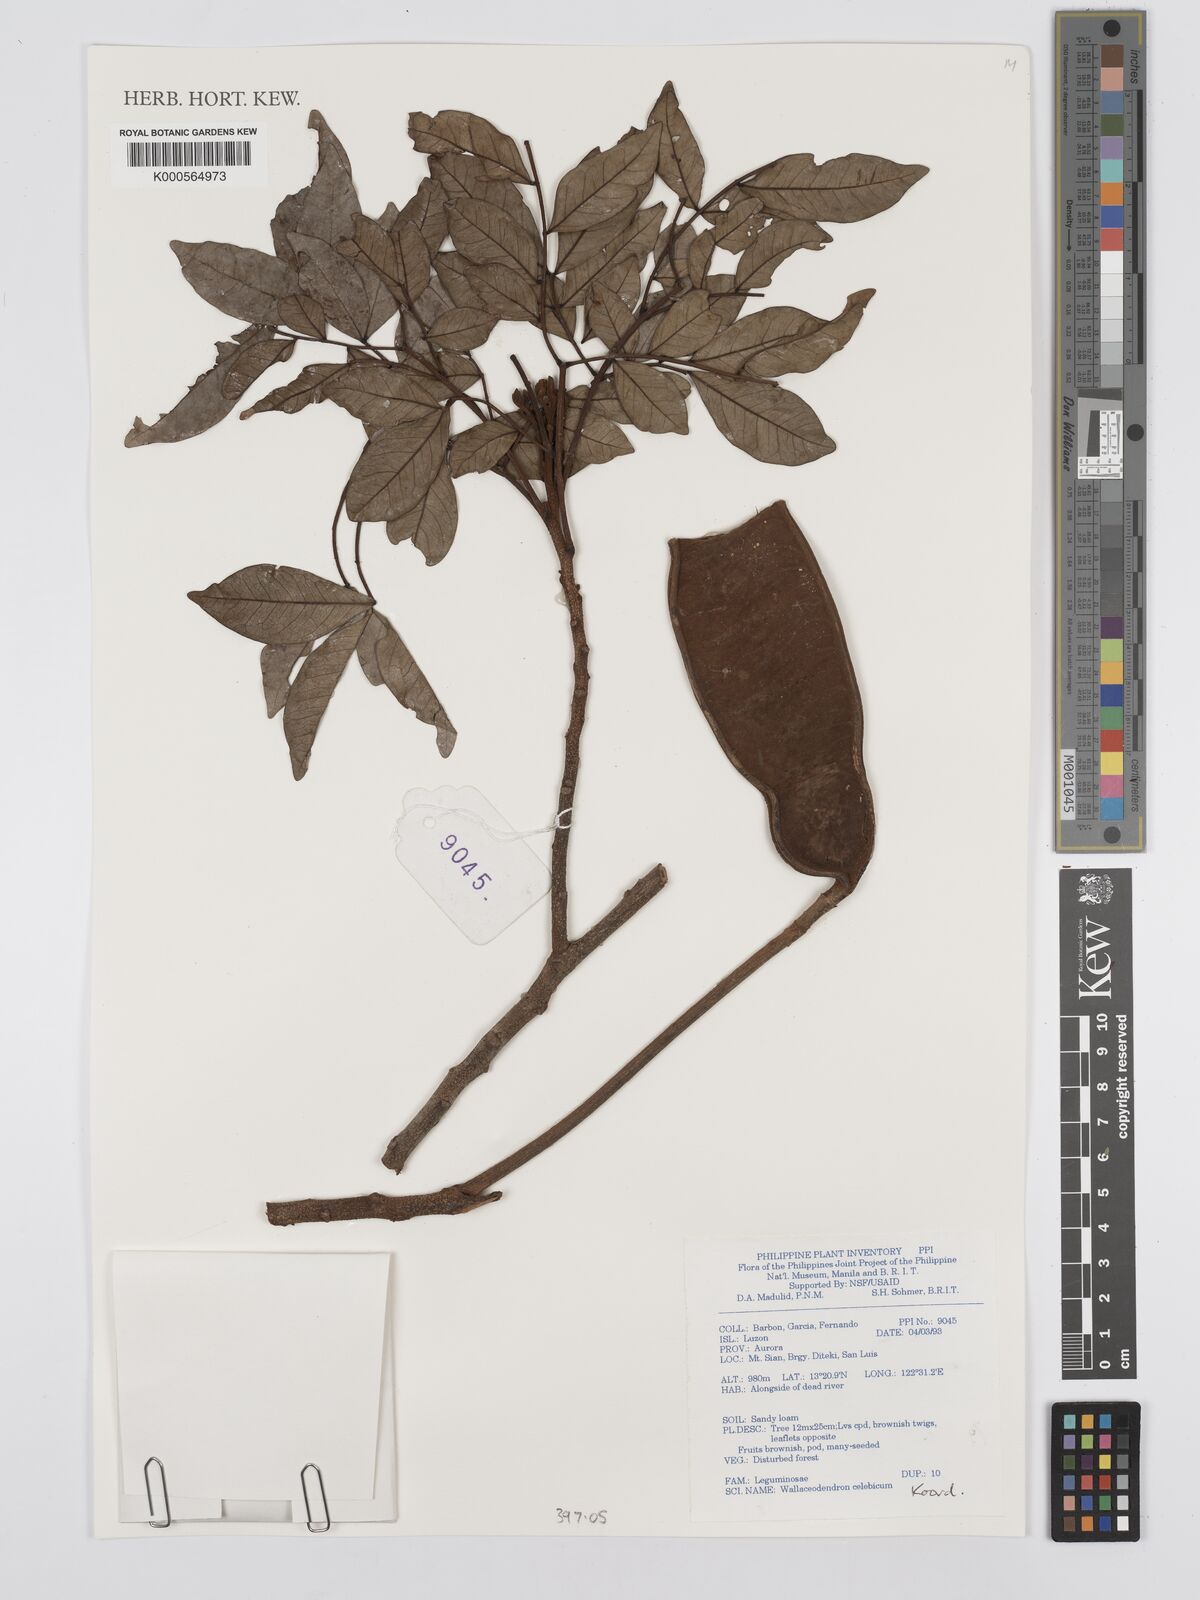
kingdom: Plantae
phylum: Tracheophyta
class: Magnoliopsida
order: Fabales
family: Fabaceae
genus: Wallaceodendron
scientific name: Wallaceodendron celebicum
